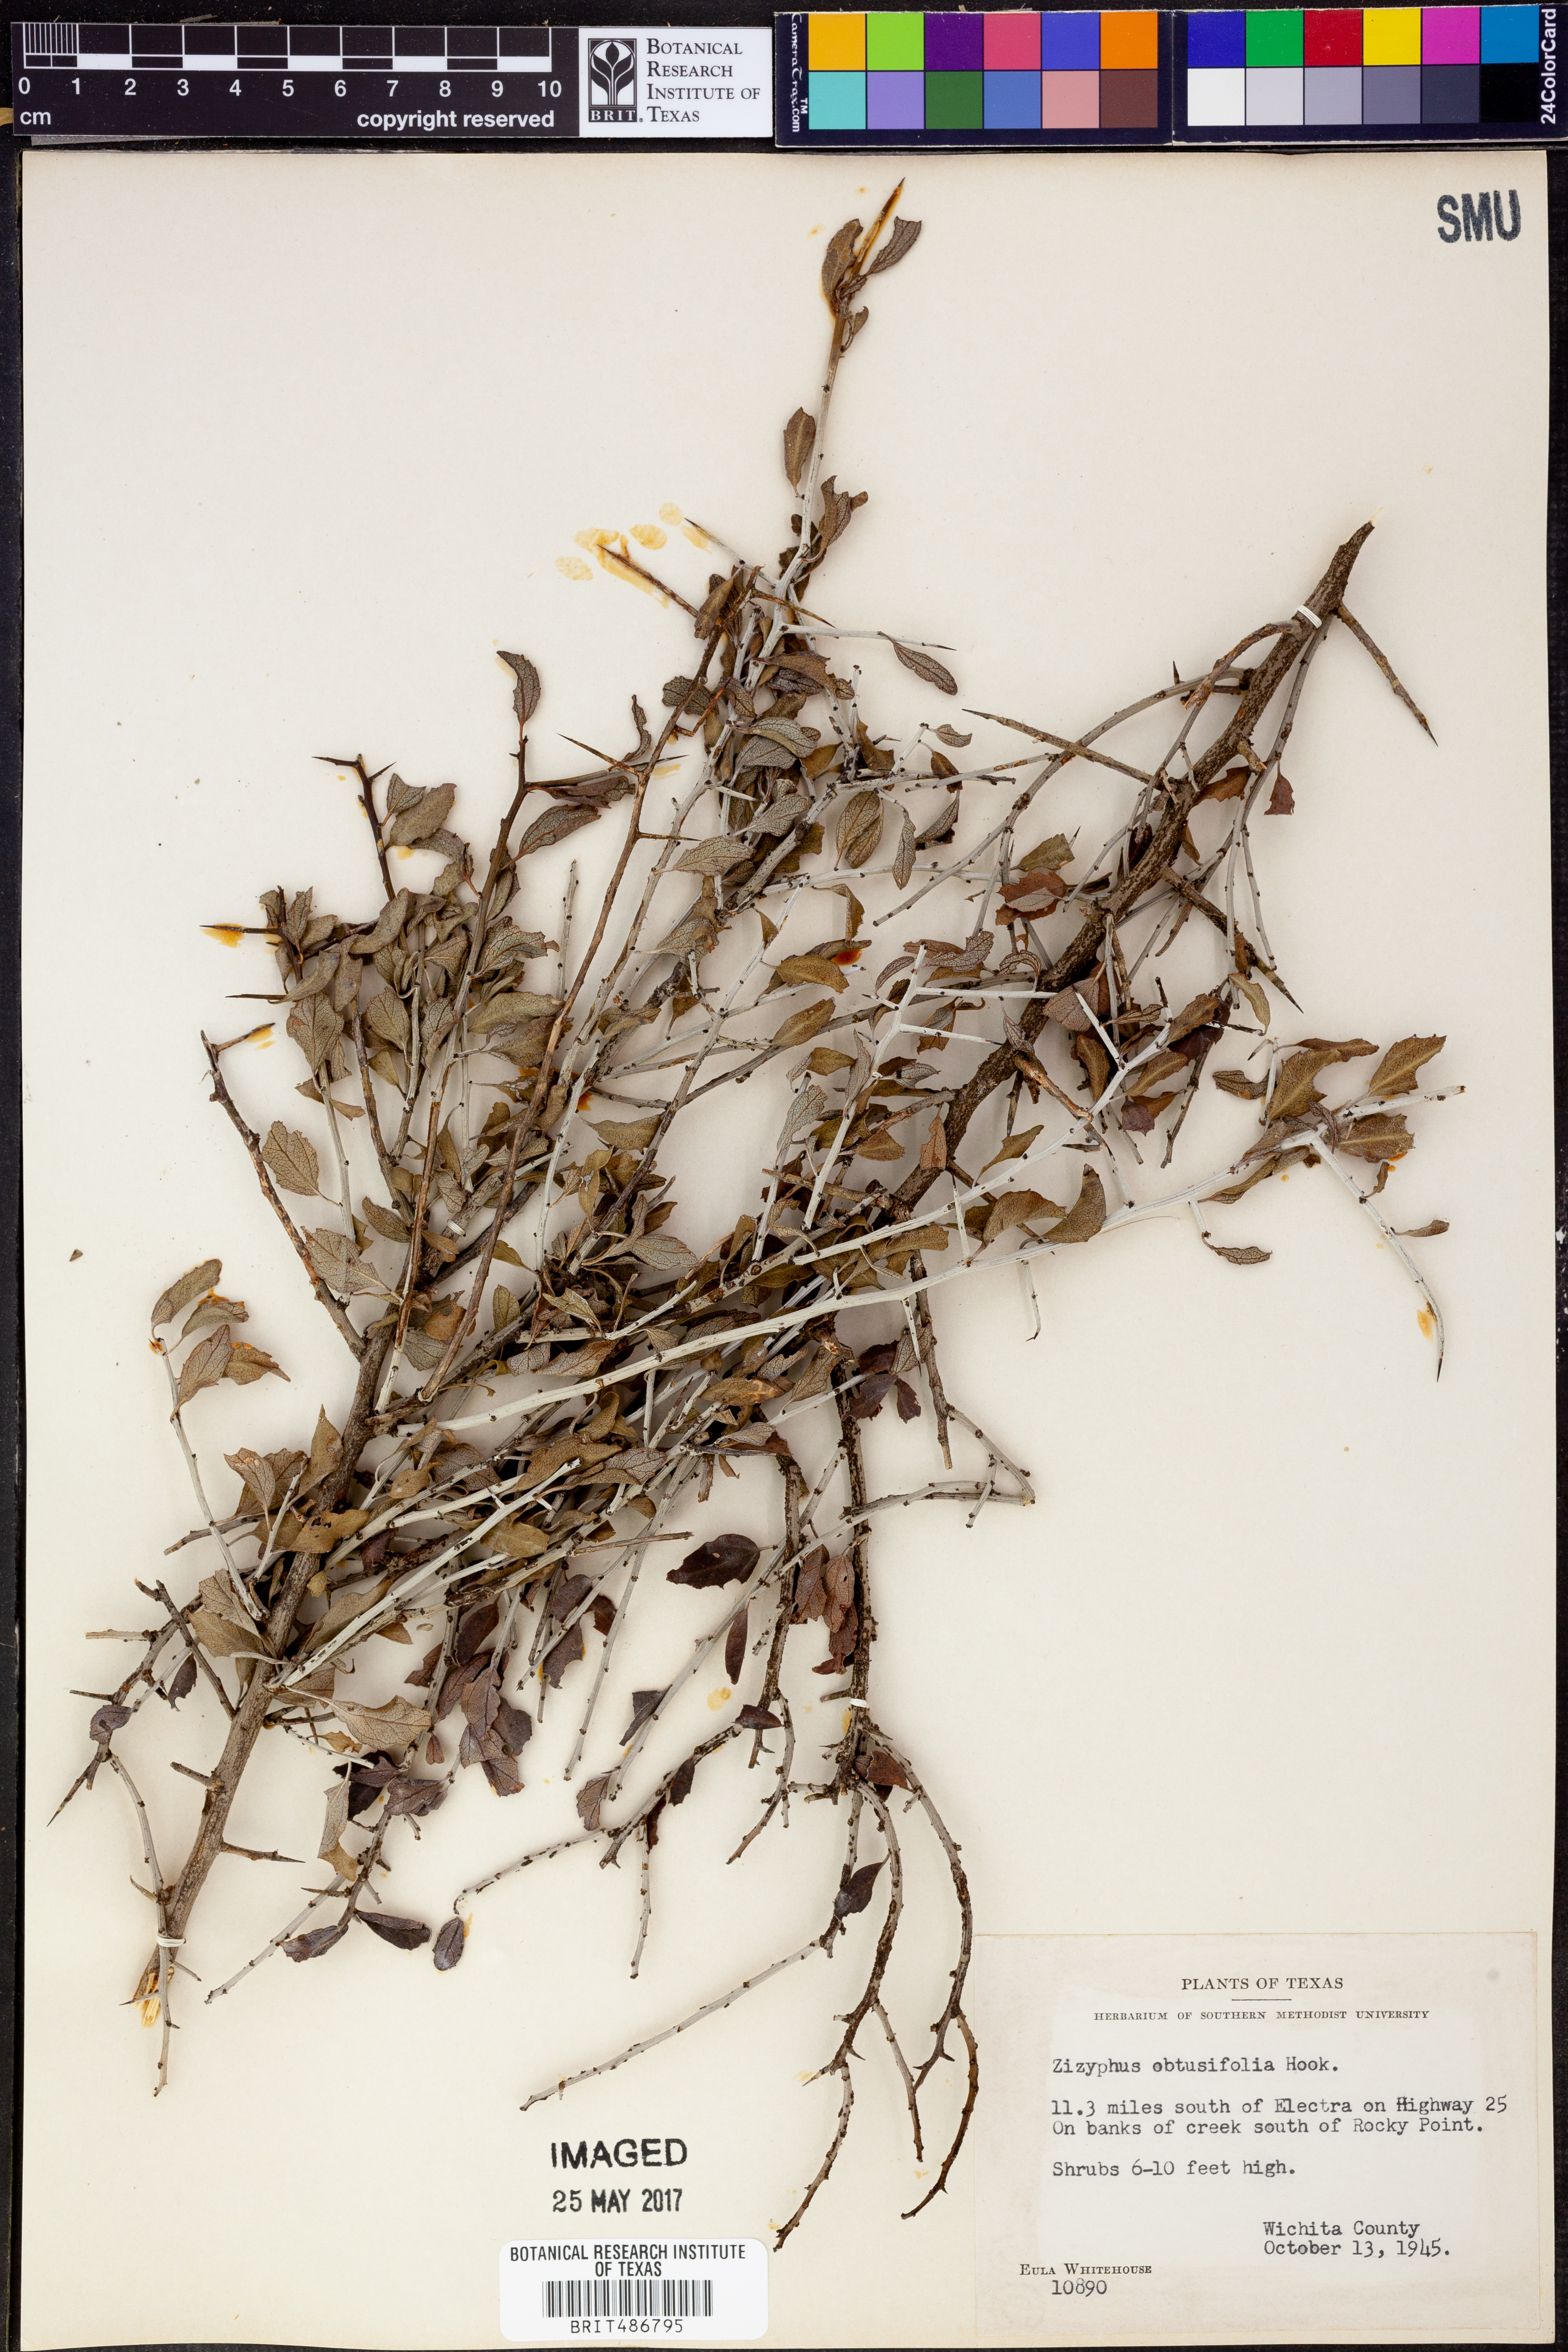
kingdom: Plantae
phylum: Tracheophyta
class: Magnoliopsida
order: Rosales
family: Rhamnaceae
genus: Sarcomphalus
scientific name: Sarcomphalus obtusifolius
